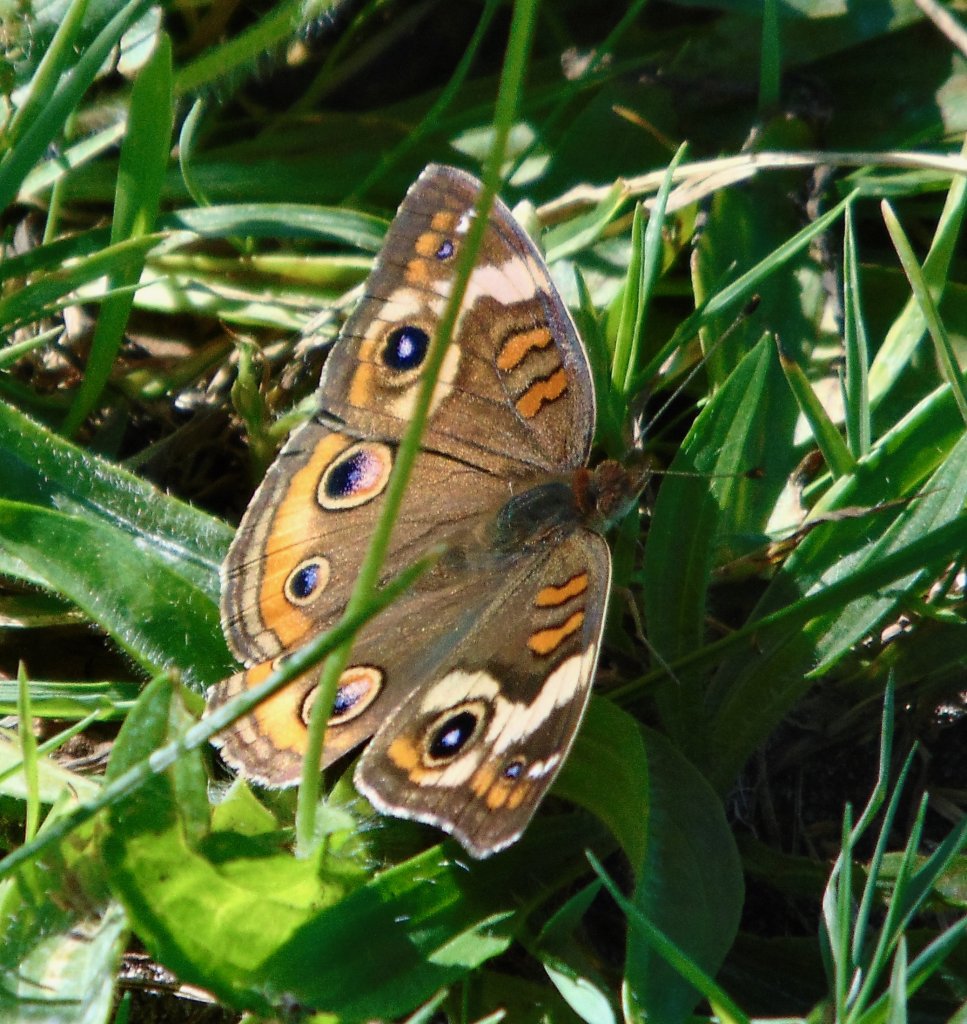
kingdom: Animalia
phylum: Arthropoda
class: Insecta
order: Lepidoptera
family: Nymphalidae
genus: Junonia
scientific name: Junonia coenia
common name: Common Buckeye
